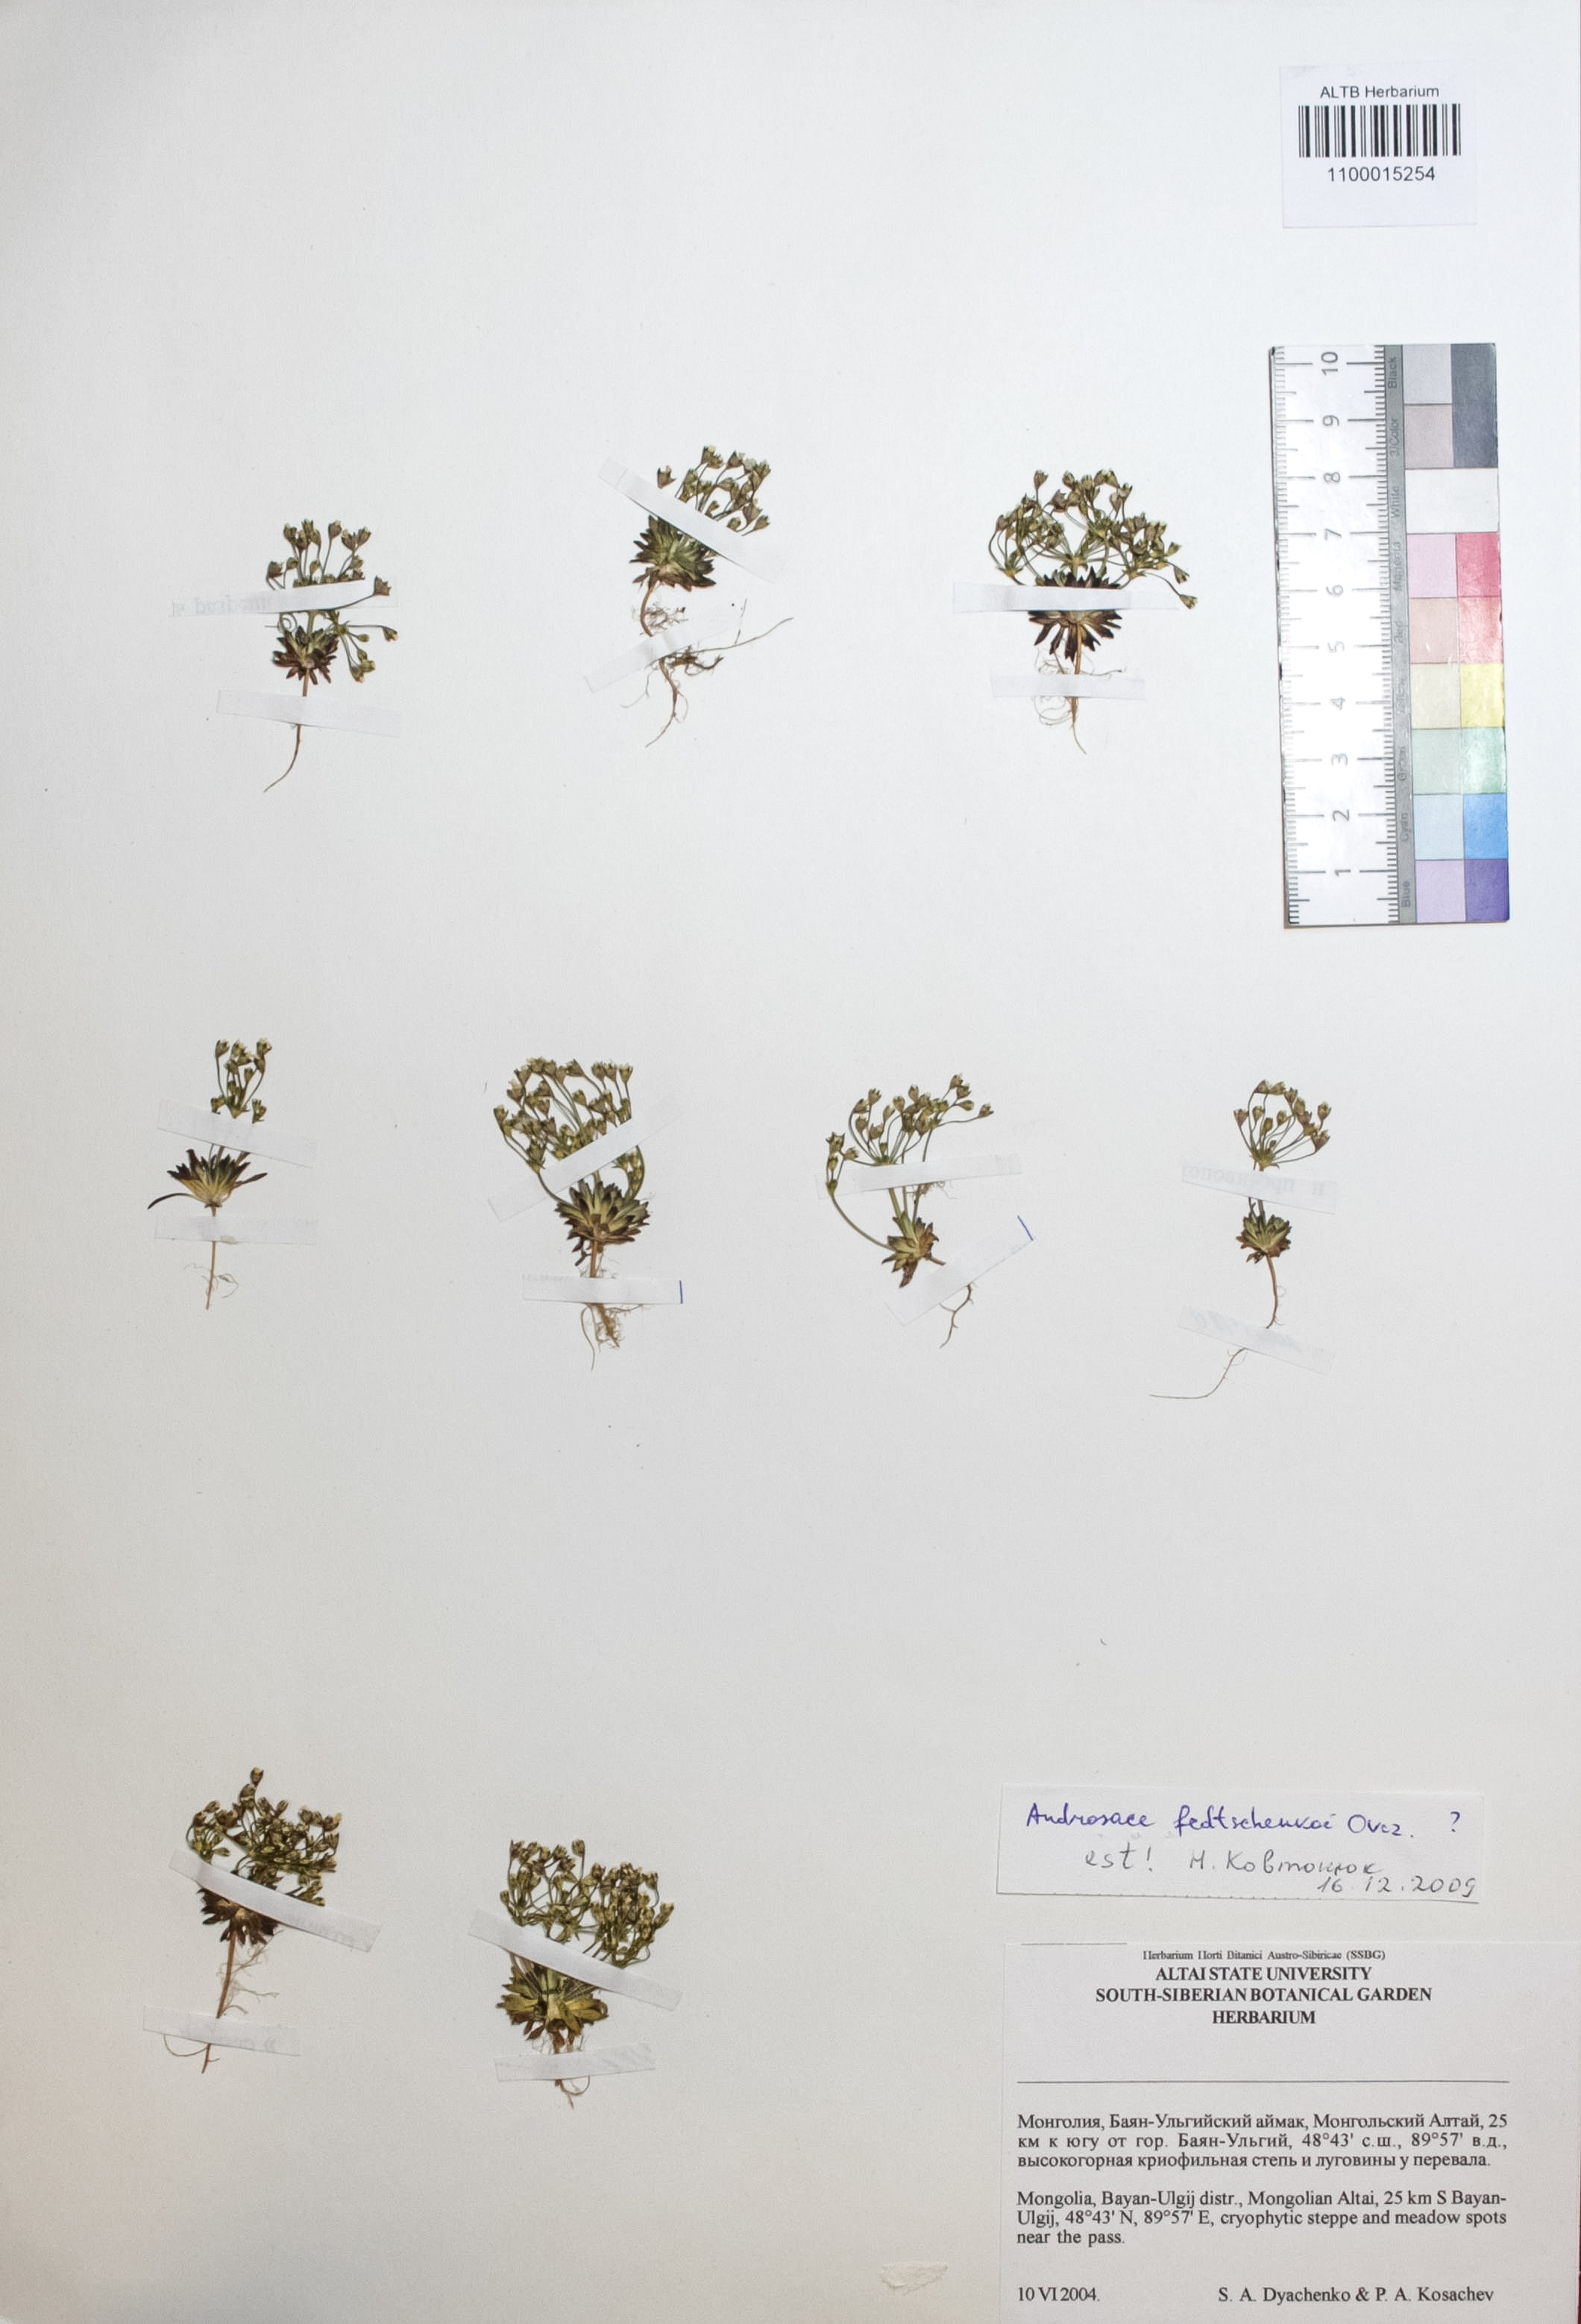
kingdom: Plantae
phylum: Tracheophyta
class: Magnoliopsida
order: Ericales
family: Primulaceae
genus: Androsace
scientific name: Androsace fedtschenkoi
